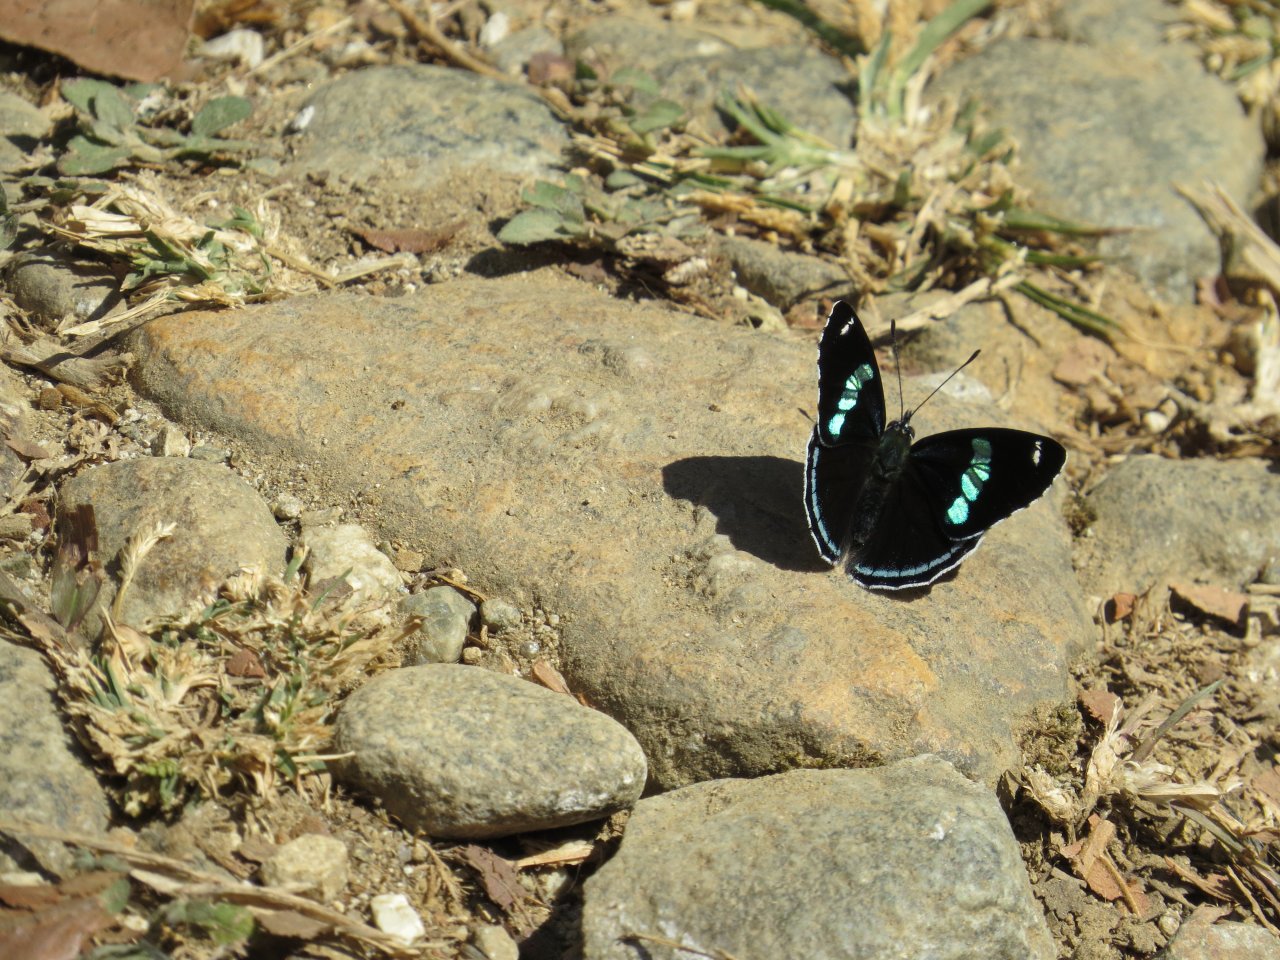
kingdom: Animalia
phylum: Arthropoda
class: Insecta
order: Lepidoptera
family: Nymphalidae
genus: Diaethria
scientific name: Diaethria anna
